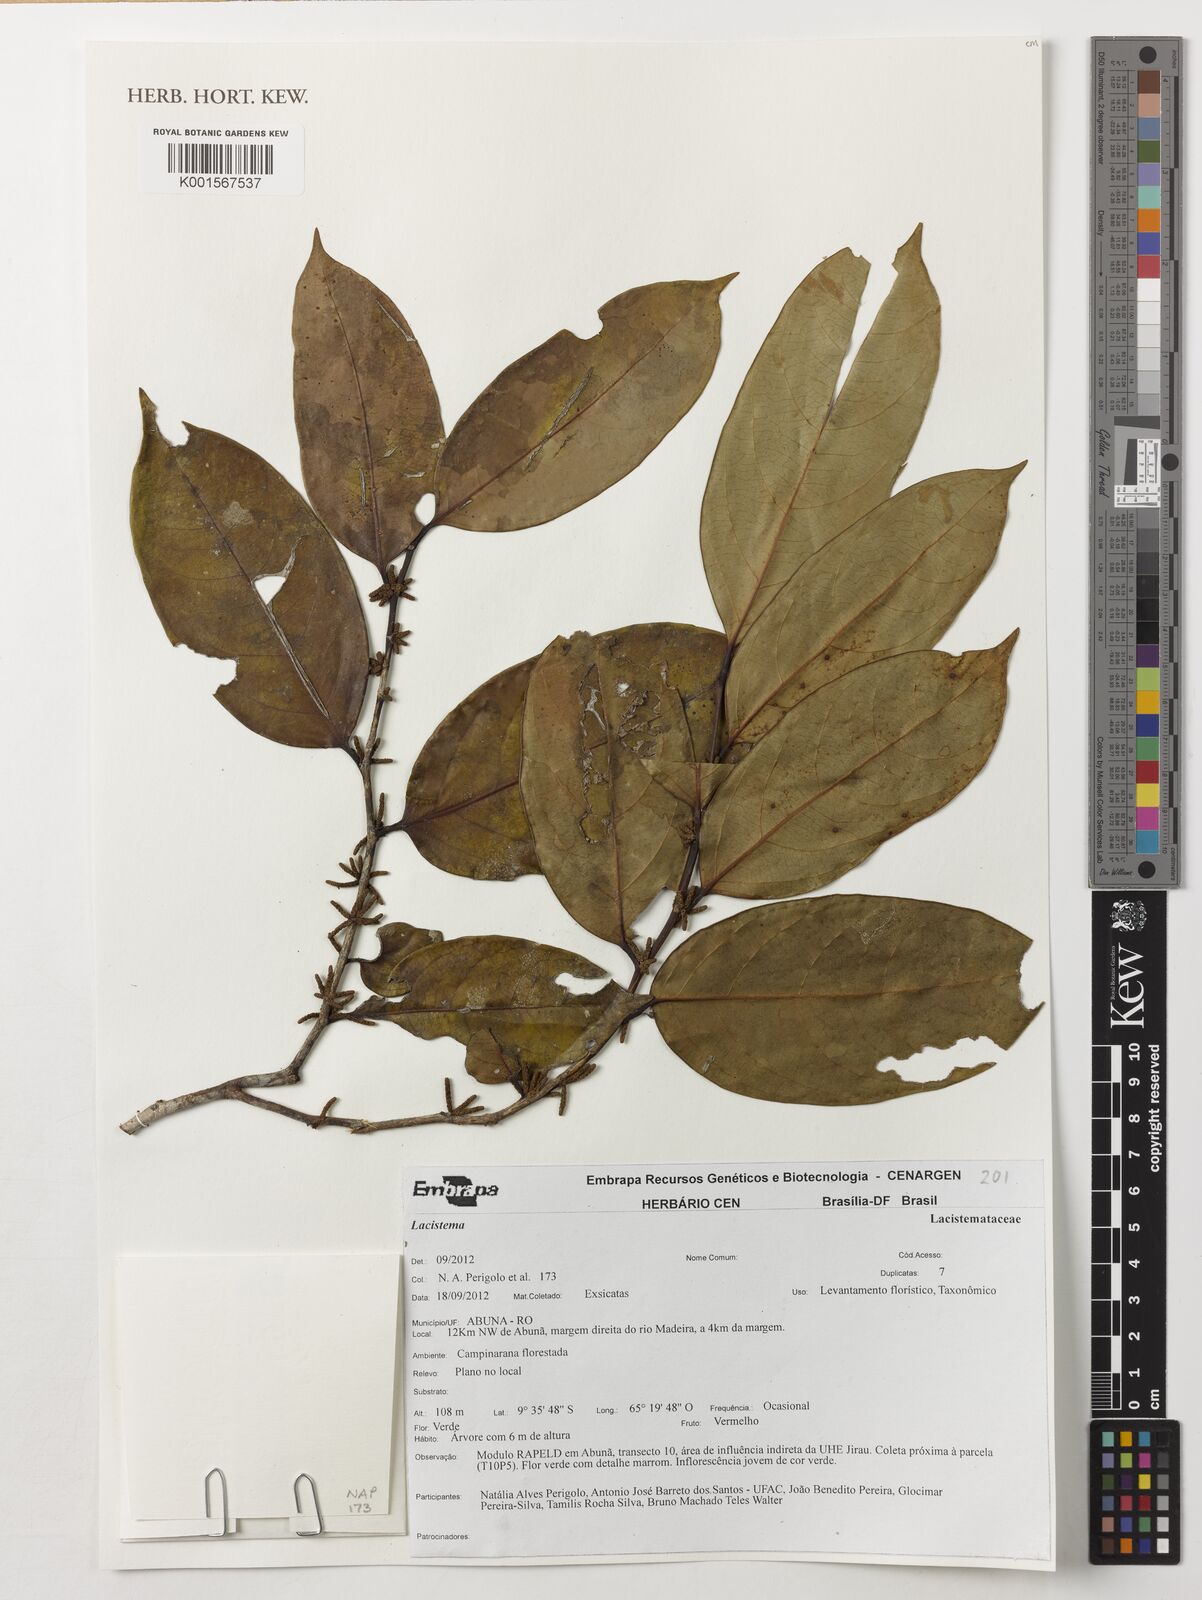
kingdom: Plantae
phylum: Tracheophyta
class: Magnoliopsida
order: Malpighiales
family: Lacistemataceae
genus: Lozania
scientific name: Lozania
